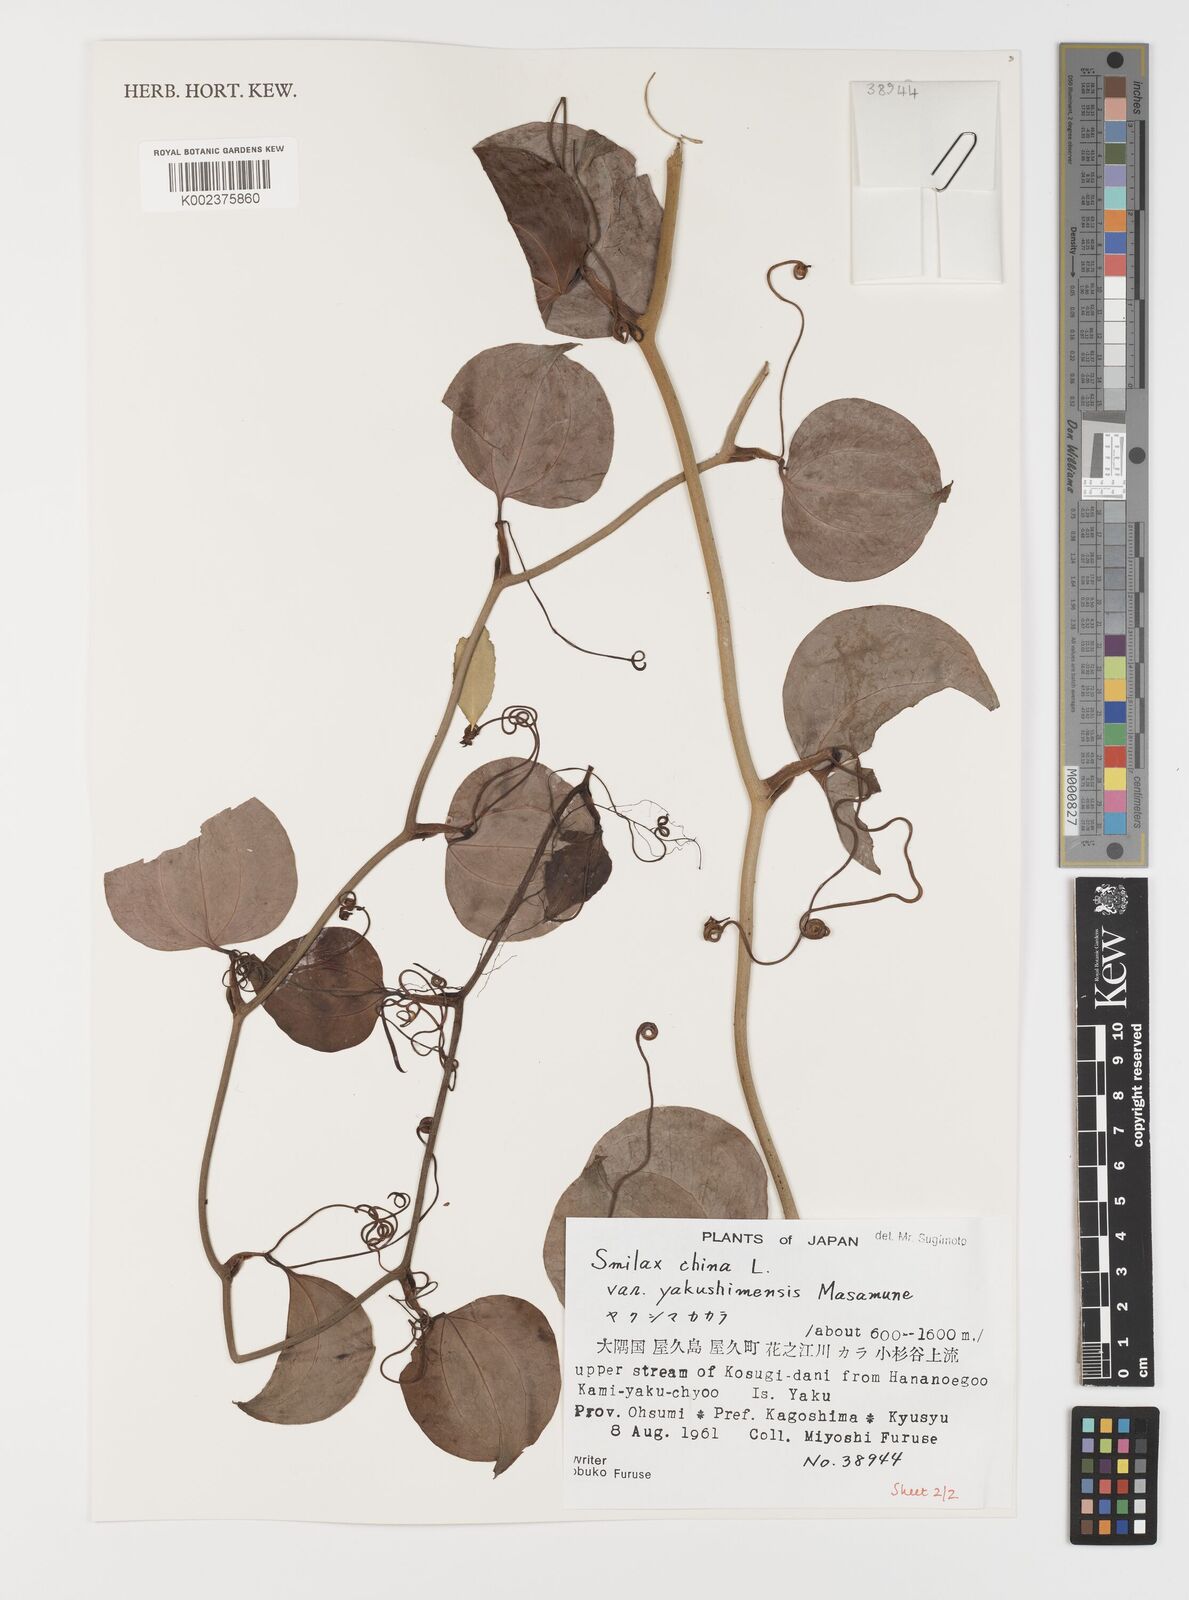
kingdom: Plantae
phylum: Tracheophyta
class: Liliopsida
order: Liliales
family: Smilacaceae
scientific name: Smilacaceae
